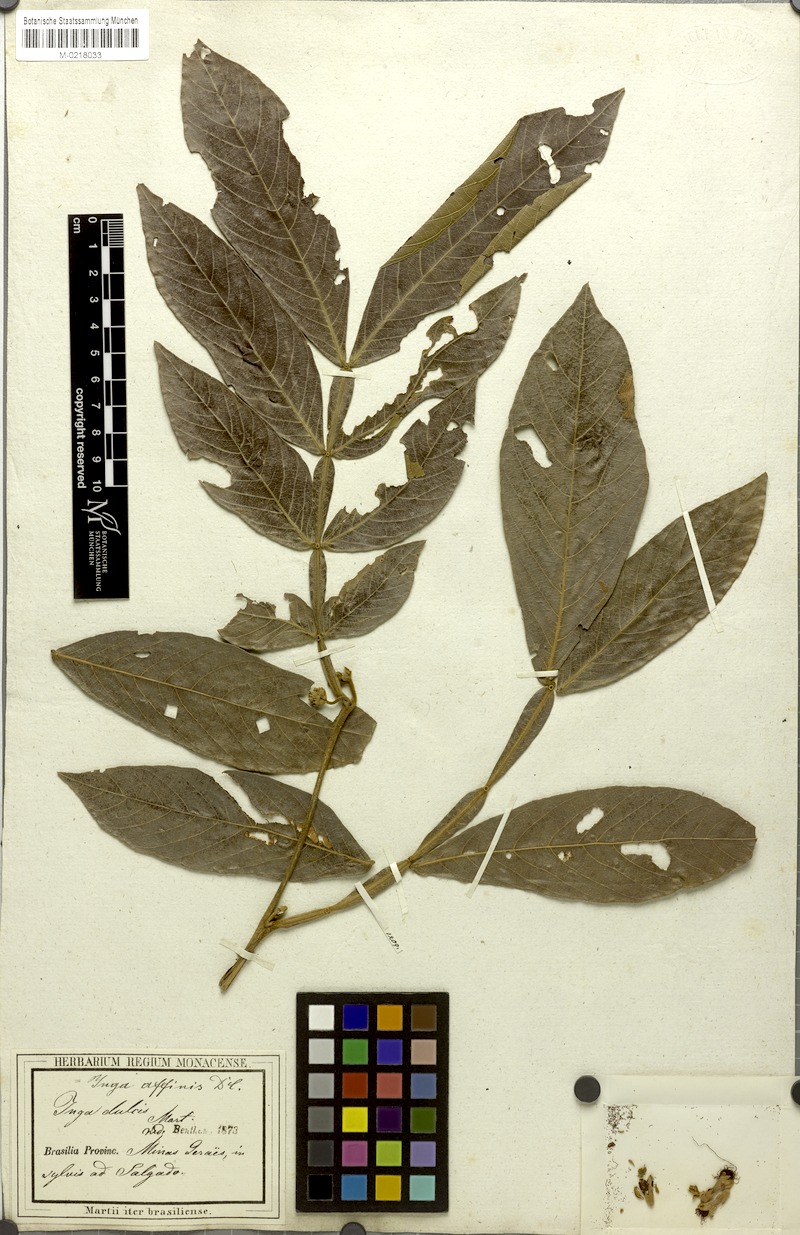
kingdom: Plantae
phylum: Tracheophyta
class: Magnoliopsida
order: Fabales
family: Fabaceae
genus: Inga
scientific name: Inga affinis
